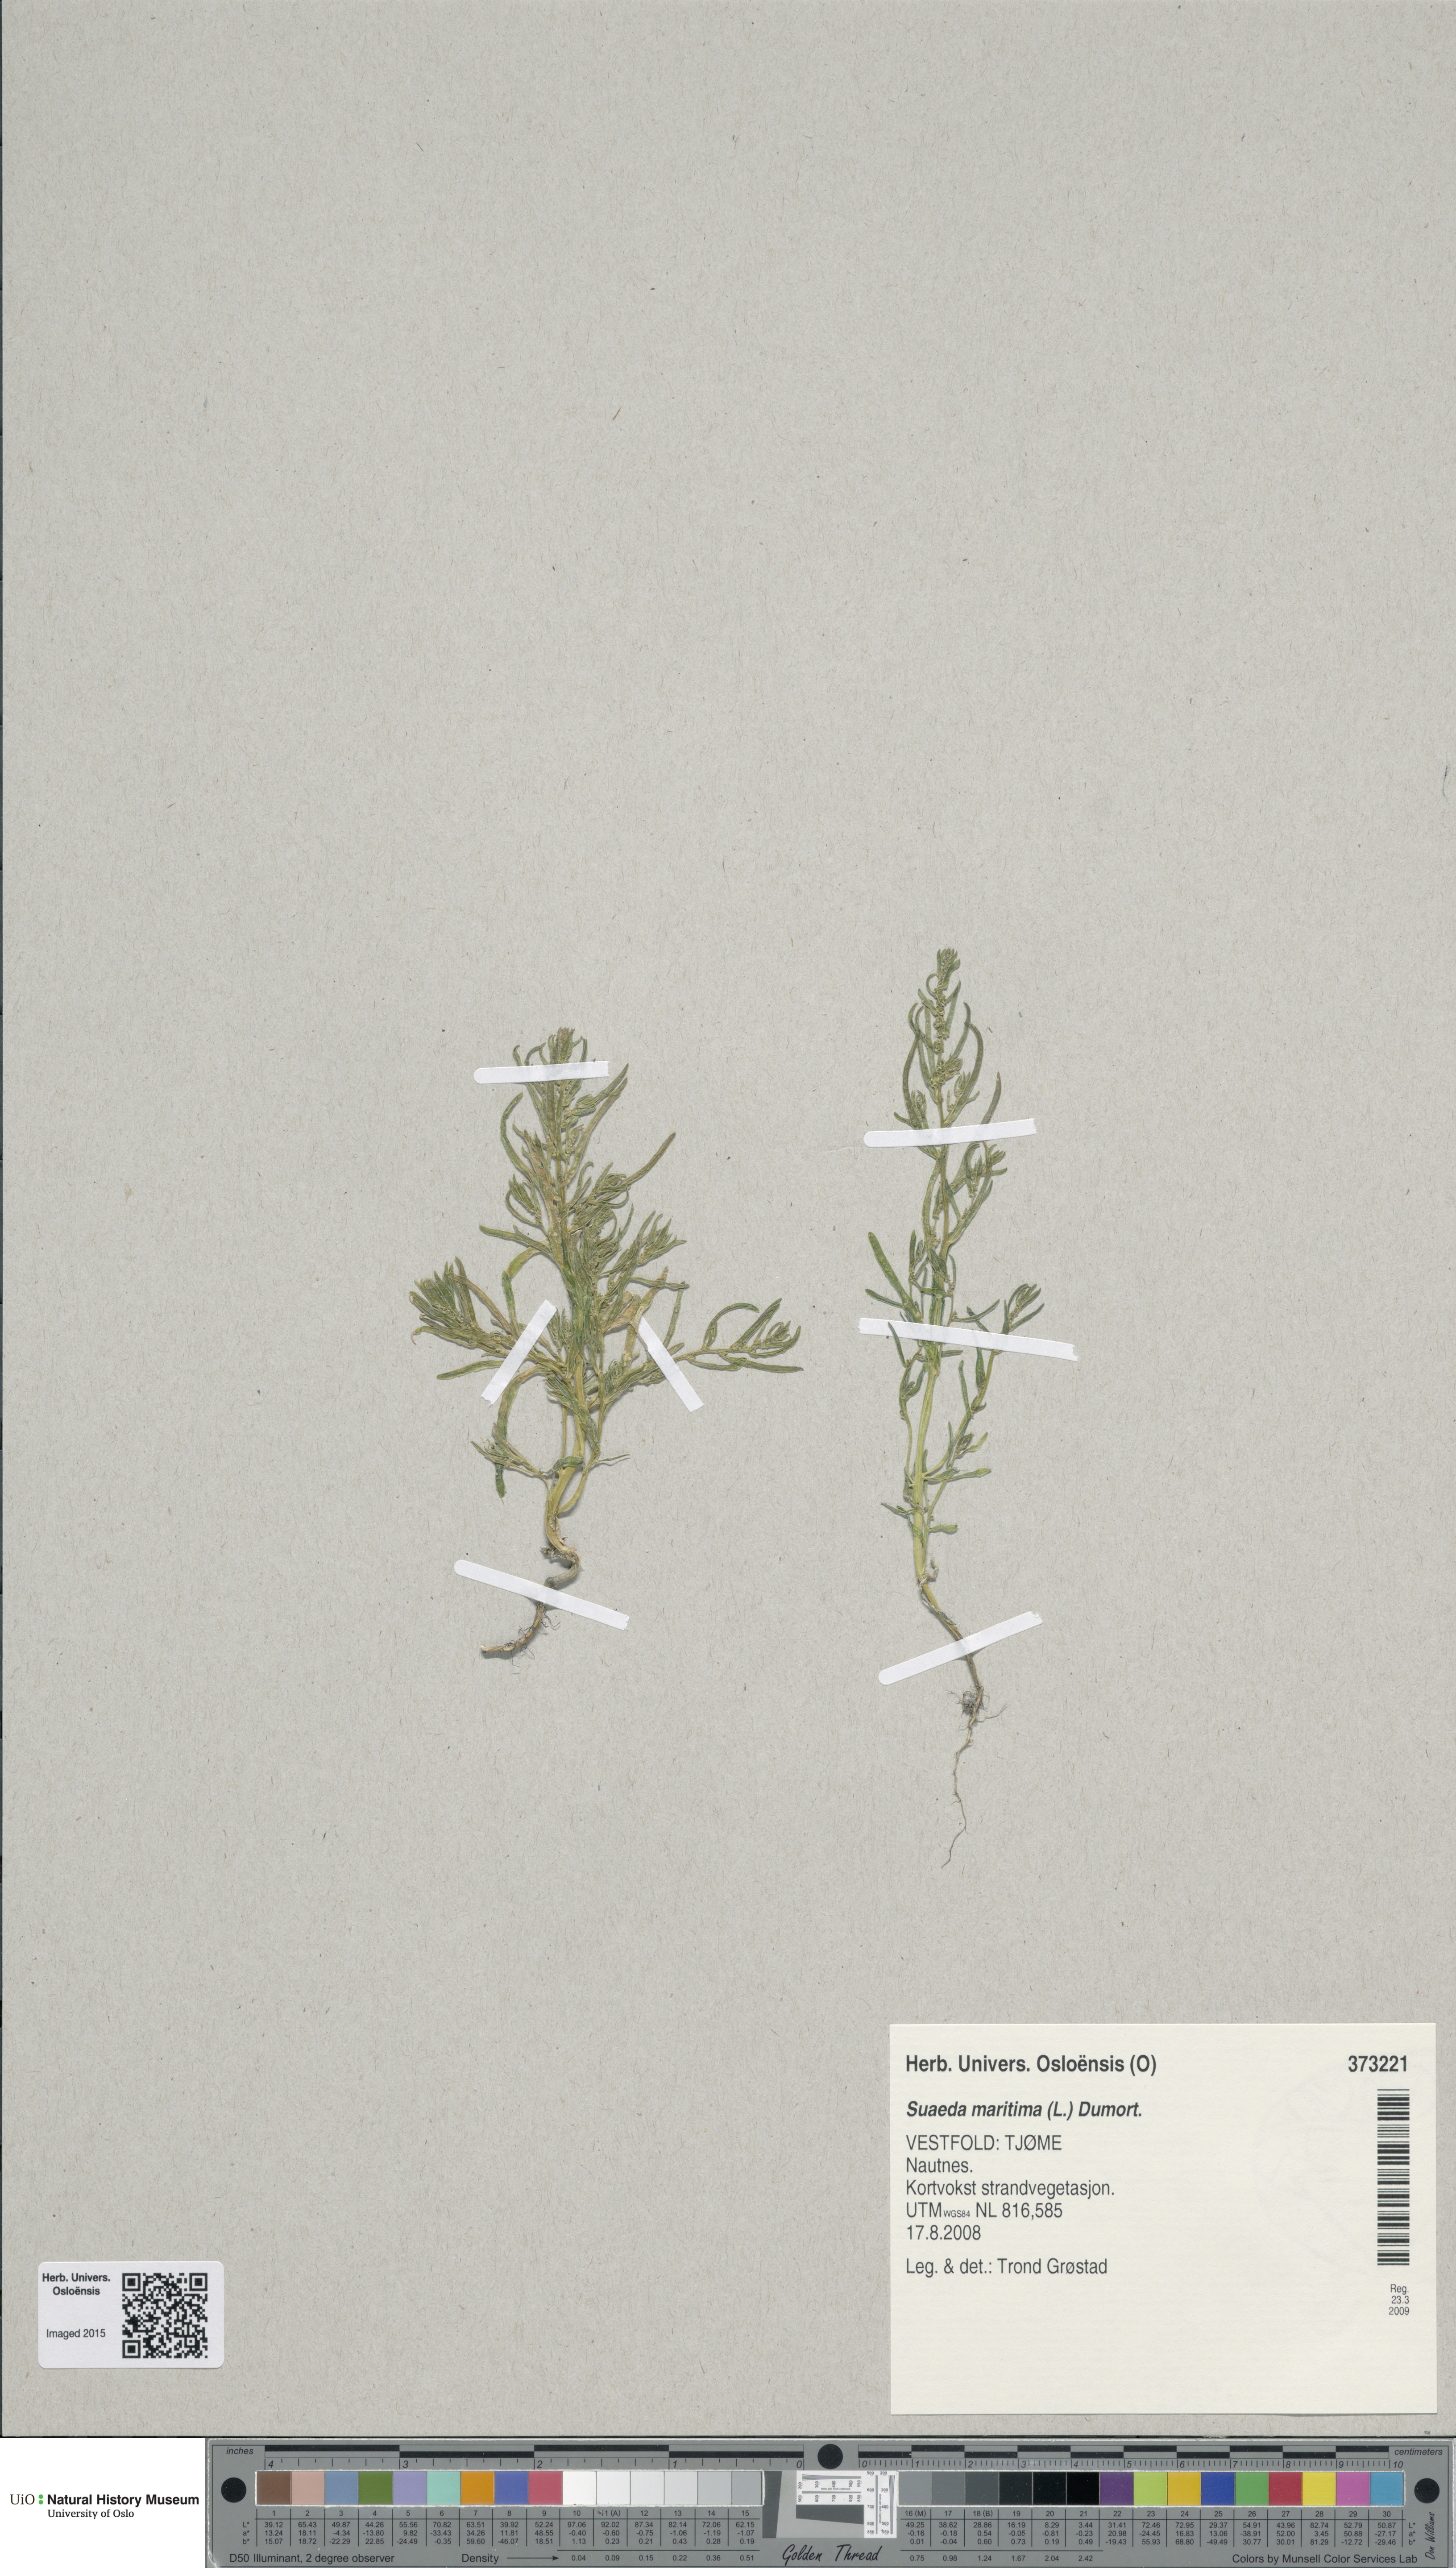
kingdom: Plantae
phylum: Tracheophyta
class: Magnoliopsida
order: Caryophyllales
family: Amaranthaceae
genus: Suaeda
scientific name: Suaeda maritima
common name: Annual sea-blite
